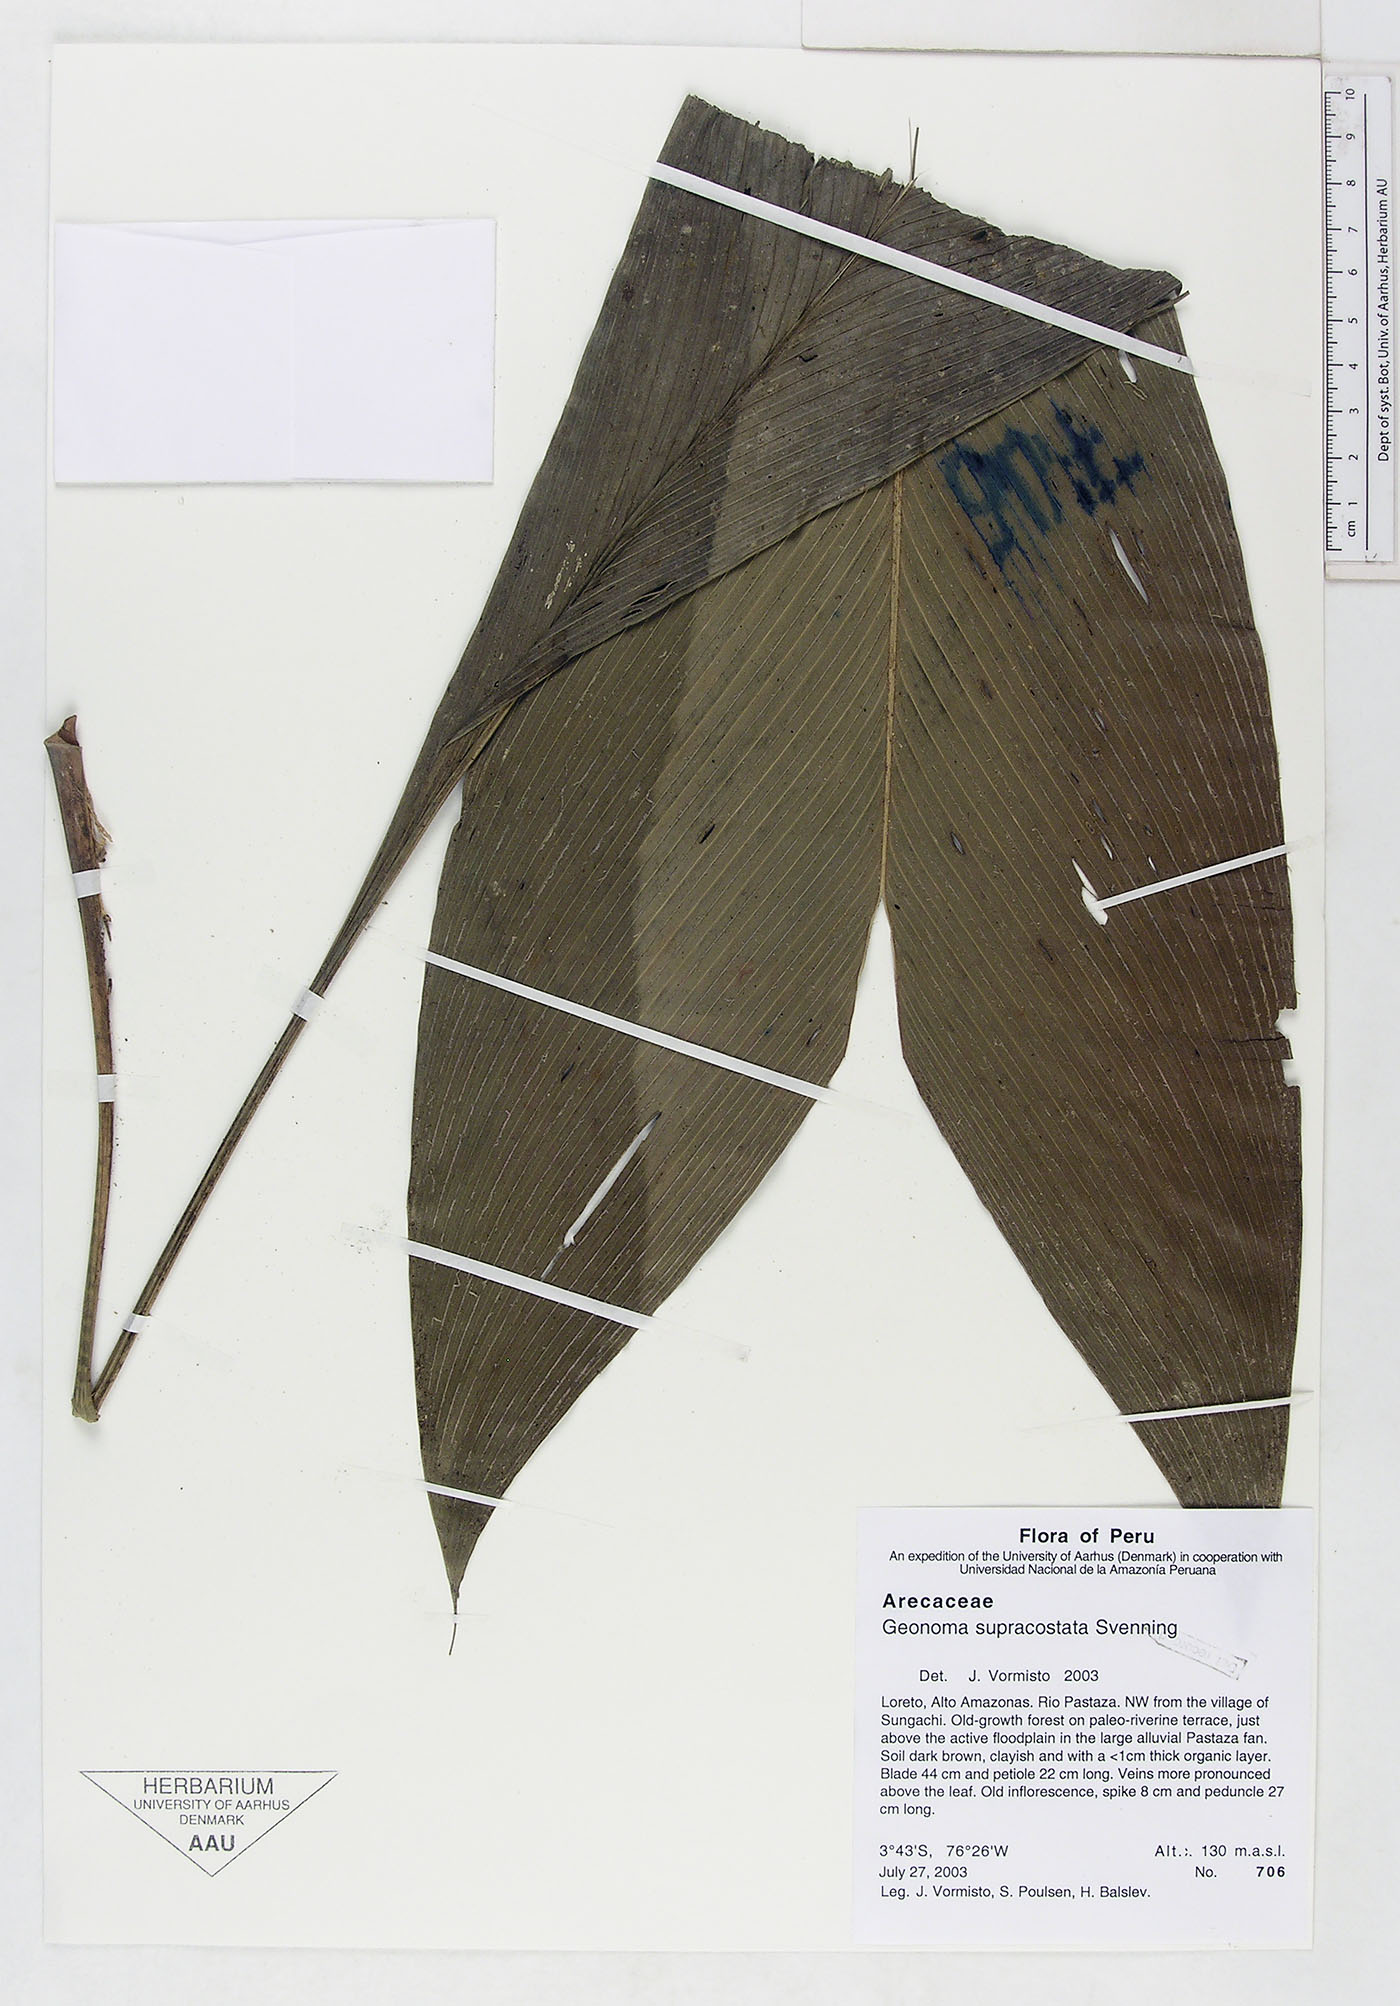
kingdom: Plantae
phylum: Tracheophyta
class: Liliopsida
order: Arecales
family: Arecaceae
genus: Geonoma
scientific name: Geonoma macrostachys
